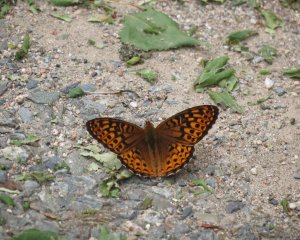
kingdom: Animalia
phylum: Arthropoda
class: Insecta
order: Lepidoptera
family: Nymphalidae
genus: Speyeria
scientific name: Speyeria atlantis
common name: Atlantis Fritillary
